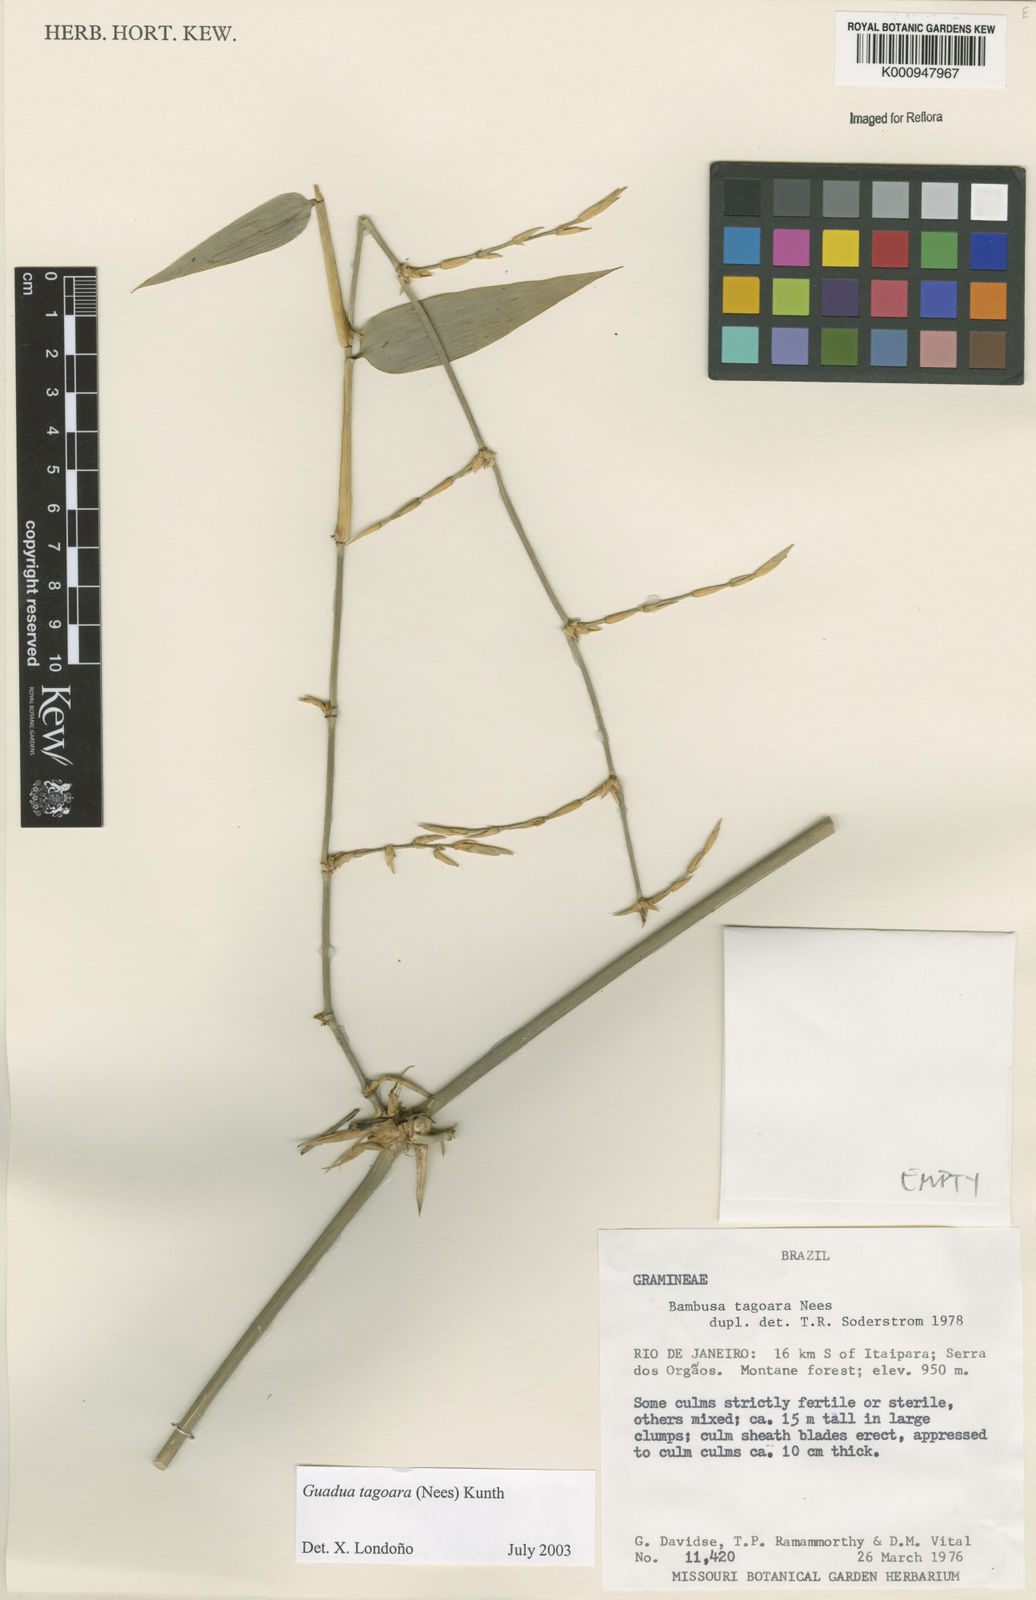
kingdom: Plantae
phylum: Tracheophyta
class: Liliopsida
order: Poales
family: Poaceae
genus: Guadua
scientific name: Guadua tagoara
